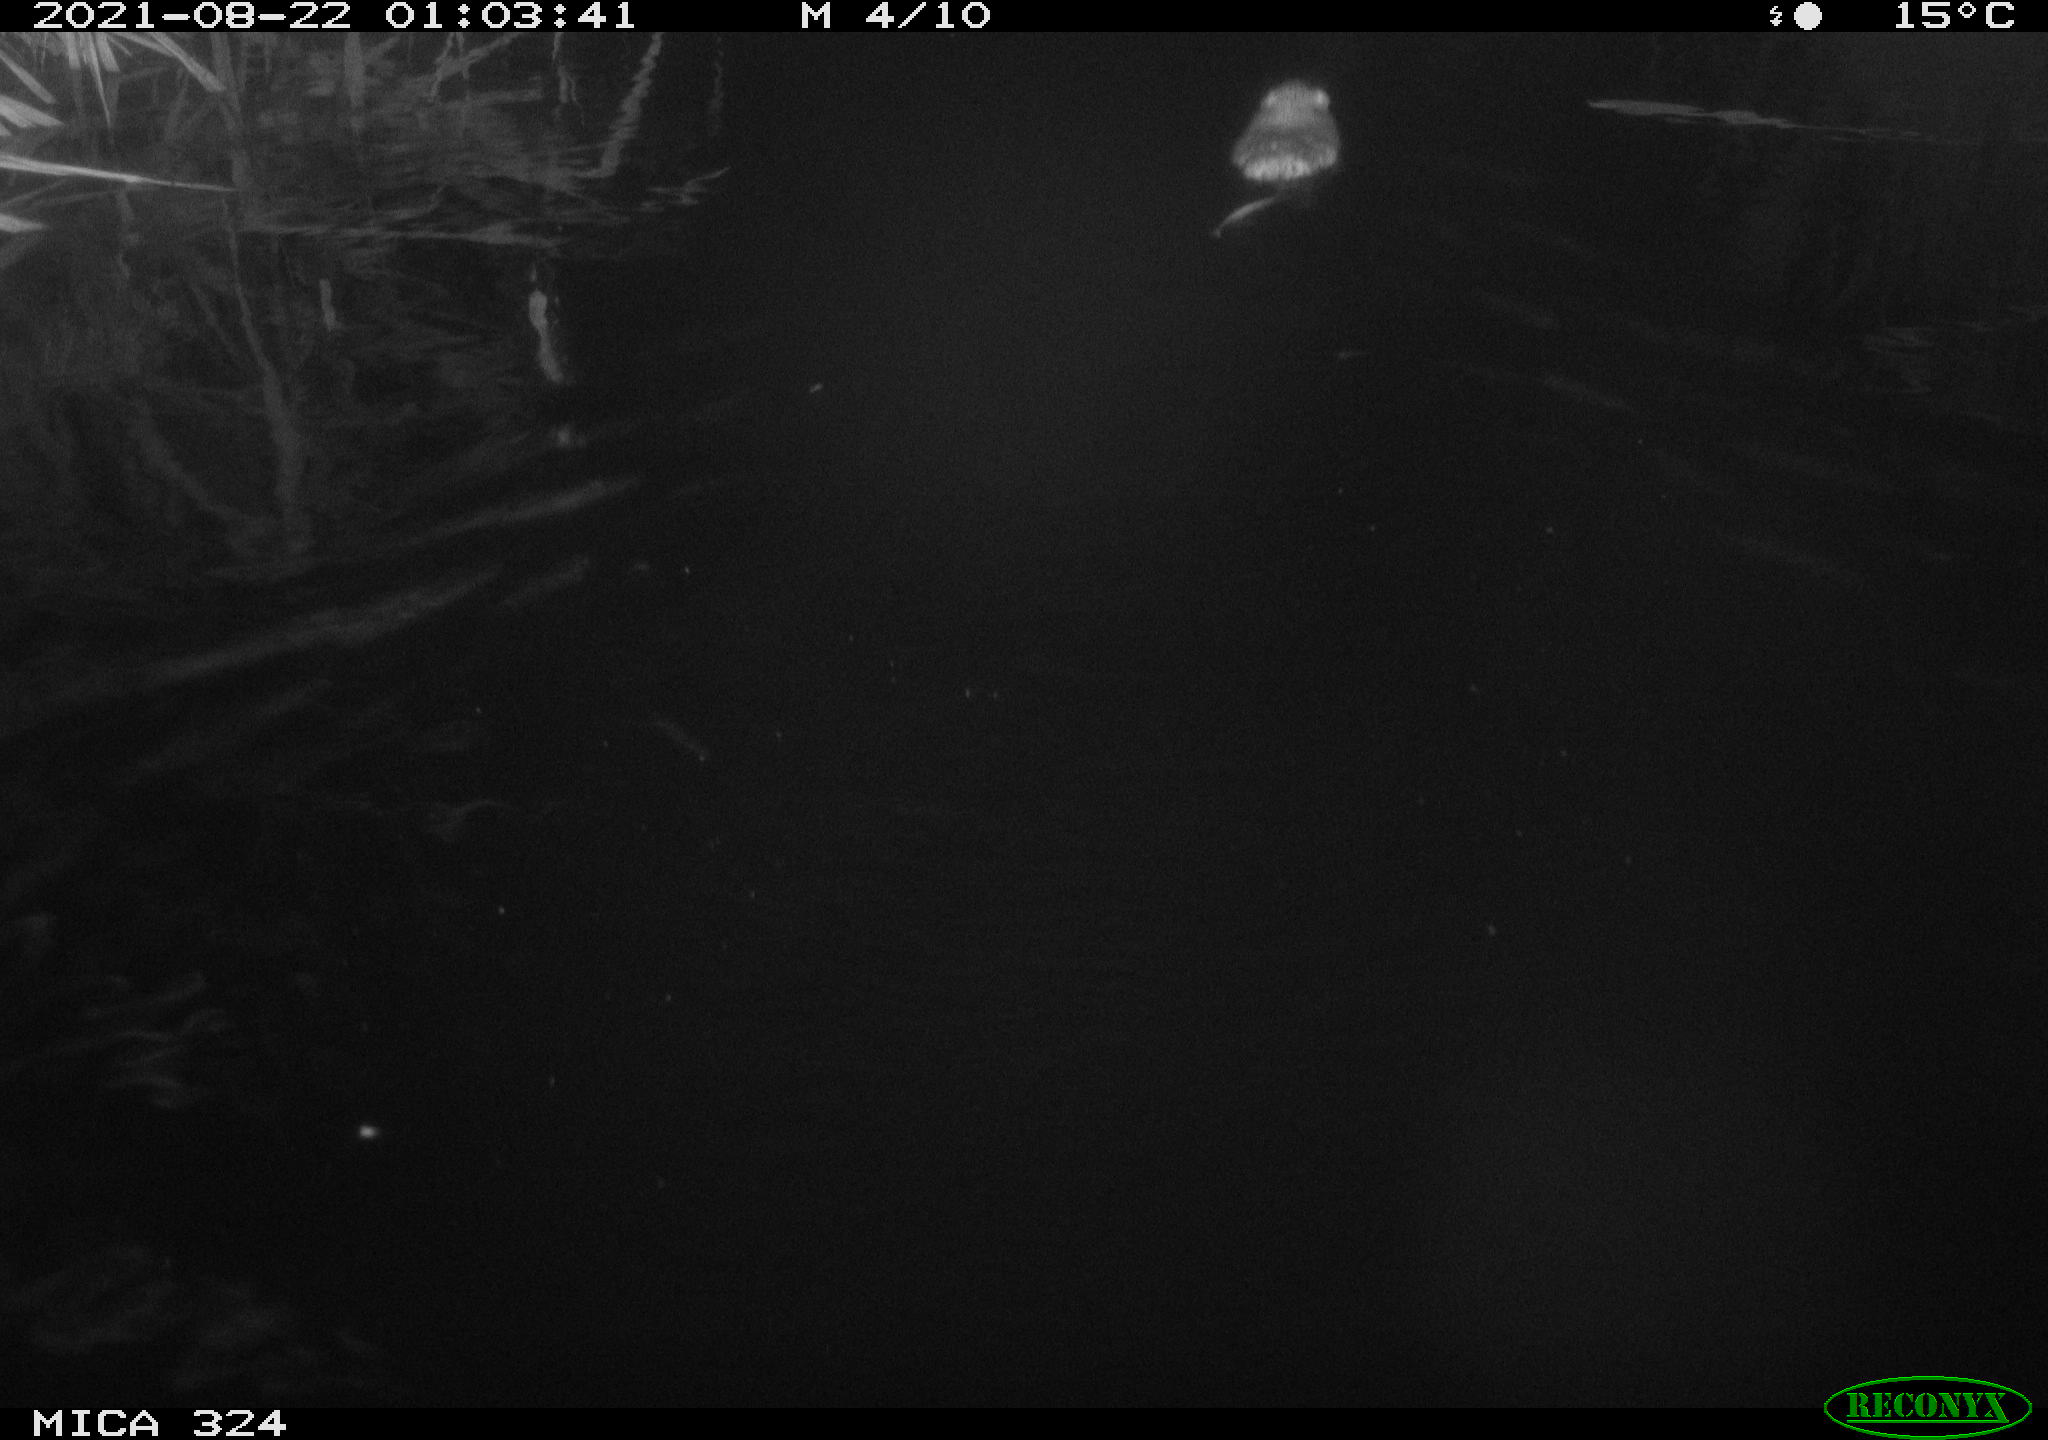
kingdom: Animalia
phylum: Chordata
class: Mammalia
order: Rodentia
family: Cricetidae
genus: Ondatra
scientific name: Ondatra zibethicus
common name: Muskrat
